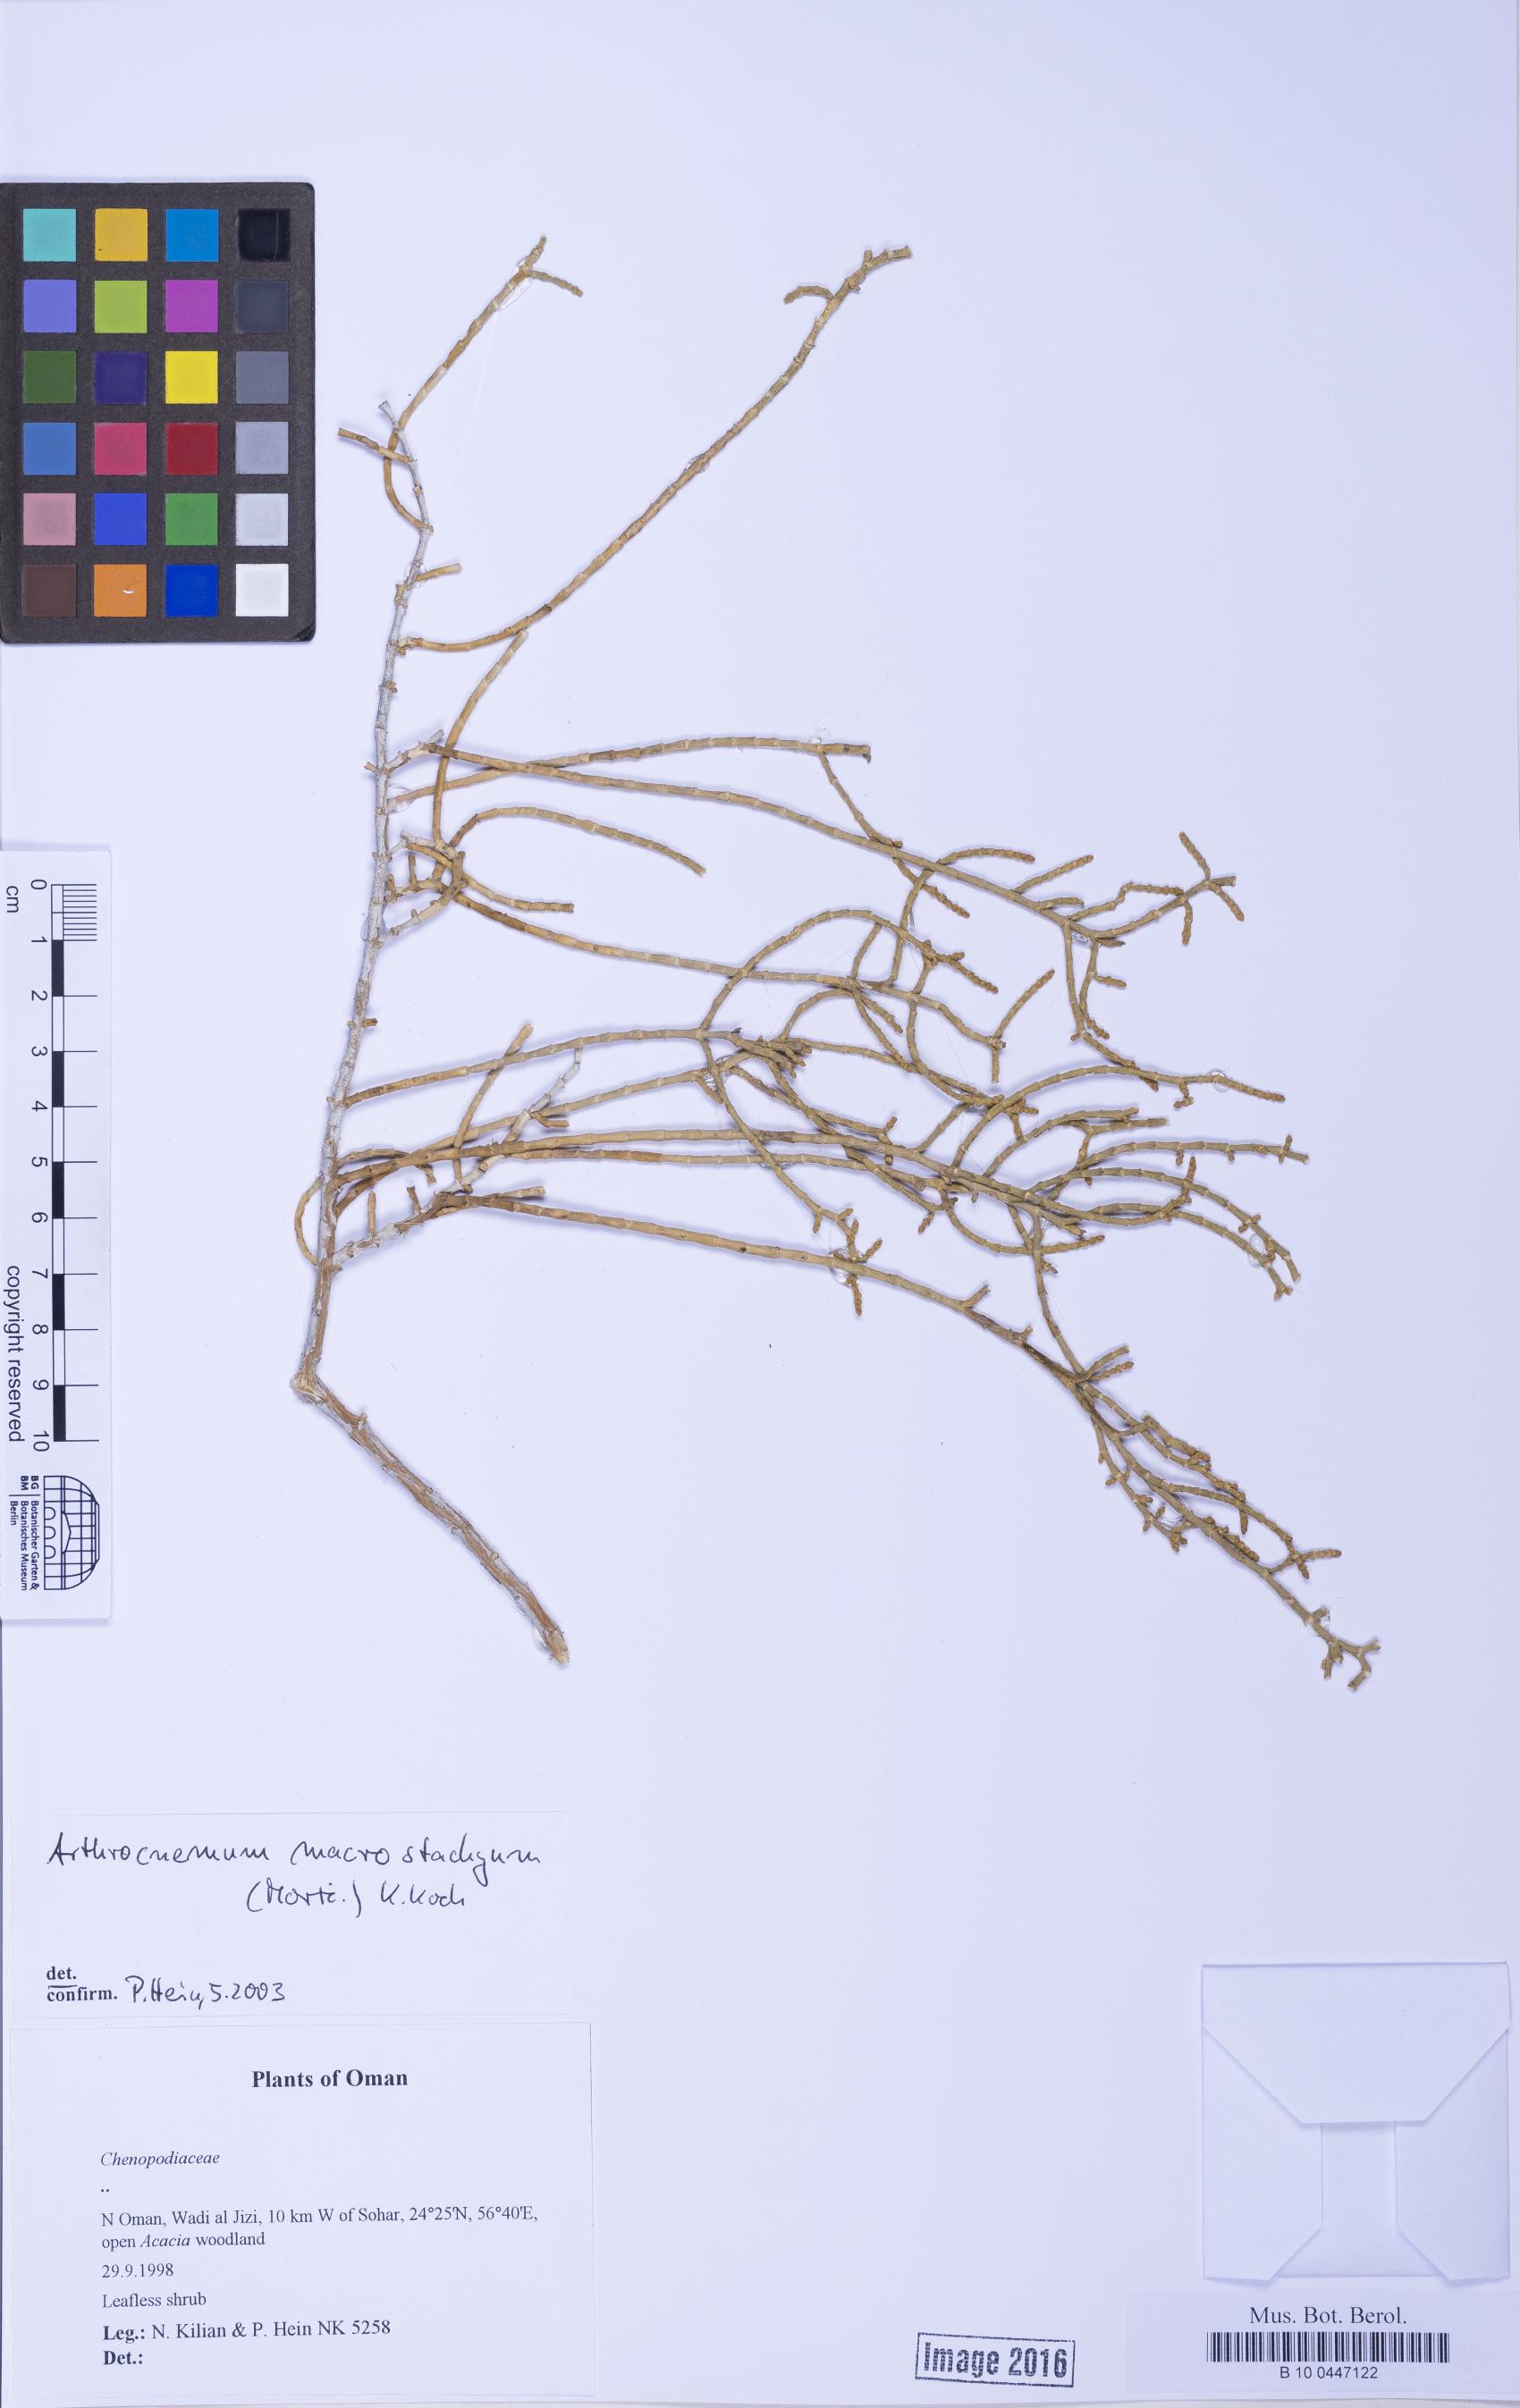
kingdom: Plantae
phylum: Tracheophyta
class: Magnoliopsida
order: Caryophyllales
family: Amaranthaceae
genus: Arthrocaulon
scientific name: Arthrocaulon macrostachyum
